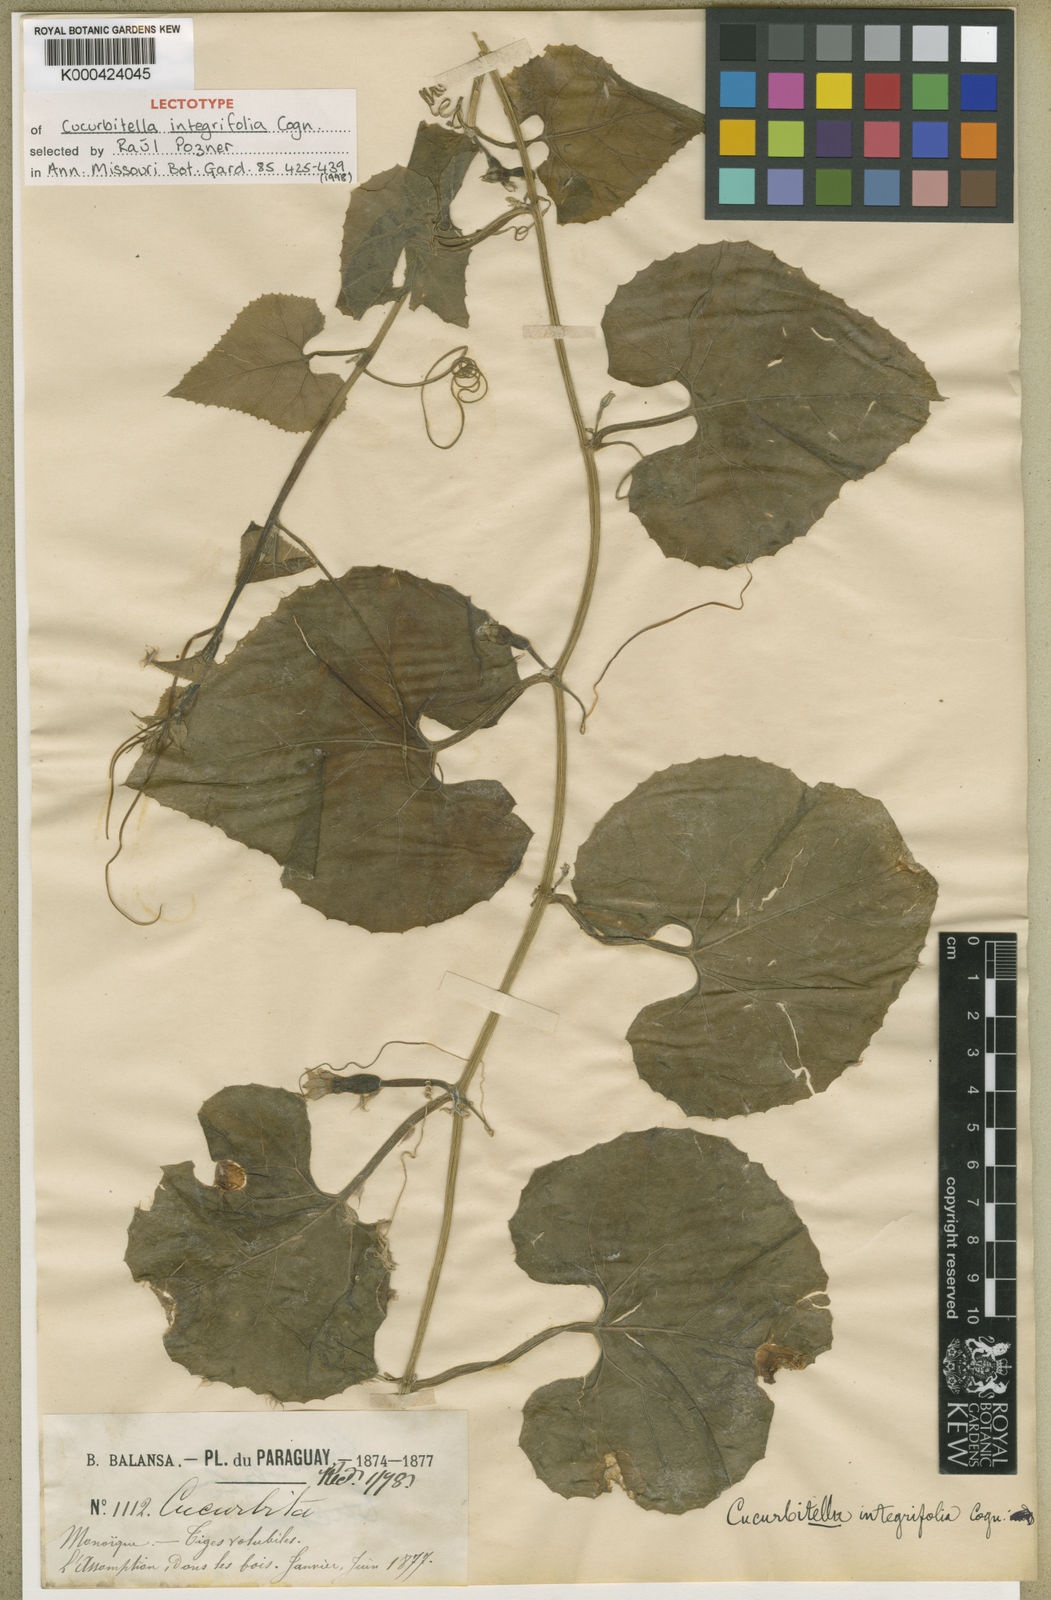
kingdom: Plantae
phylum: Tracheophyta
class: Magnoliopsida
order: Cucurbitales
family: Cucurbitaceae
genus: Cucurbitella
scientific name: Cucurbitella asperata
